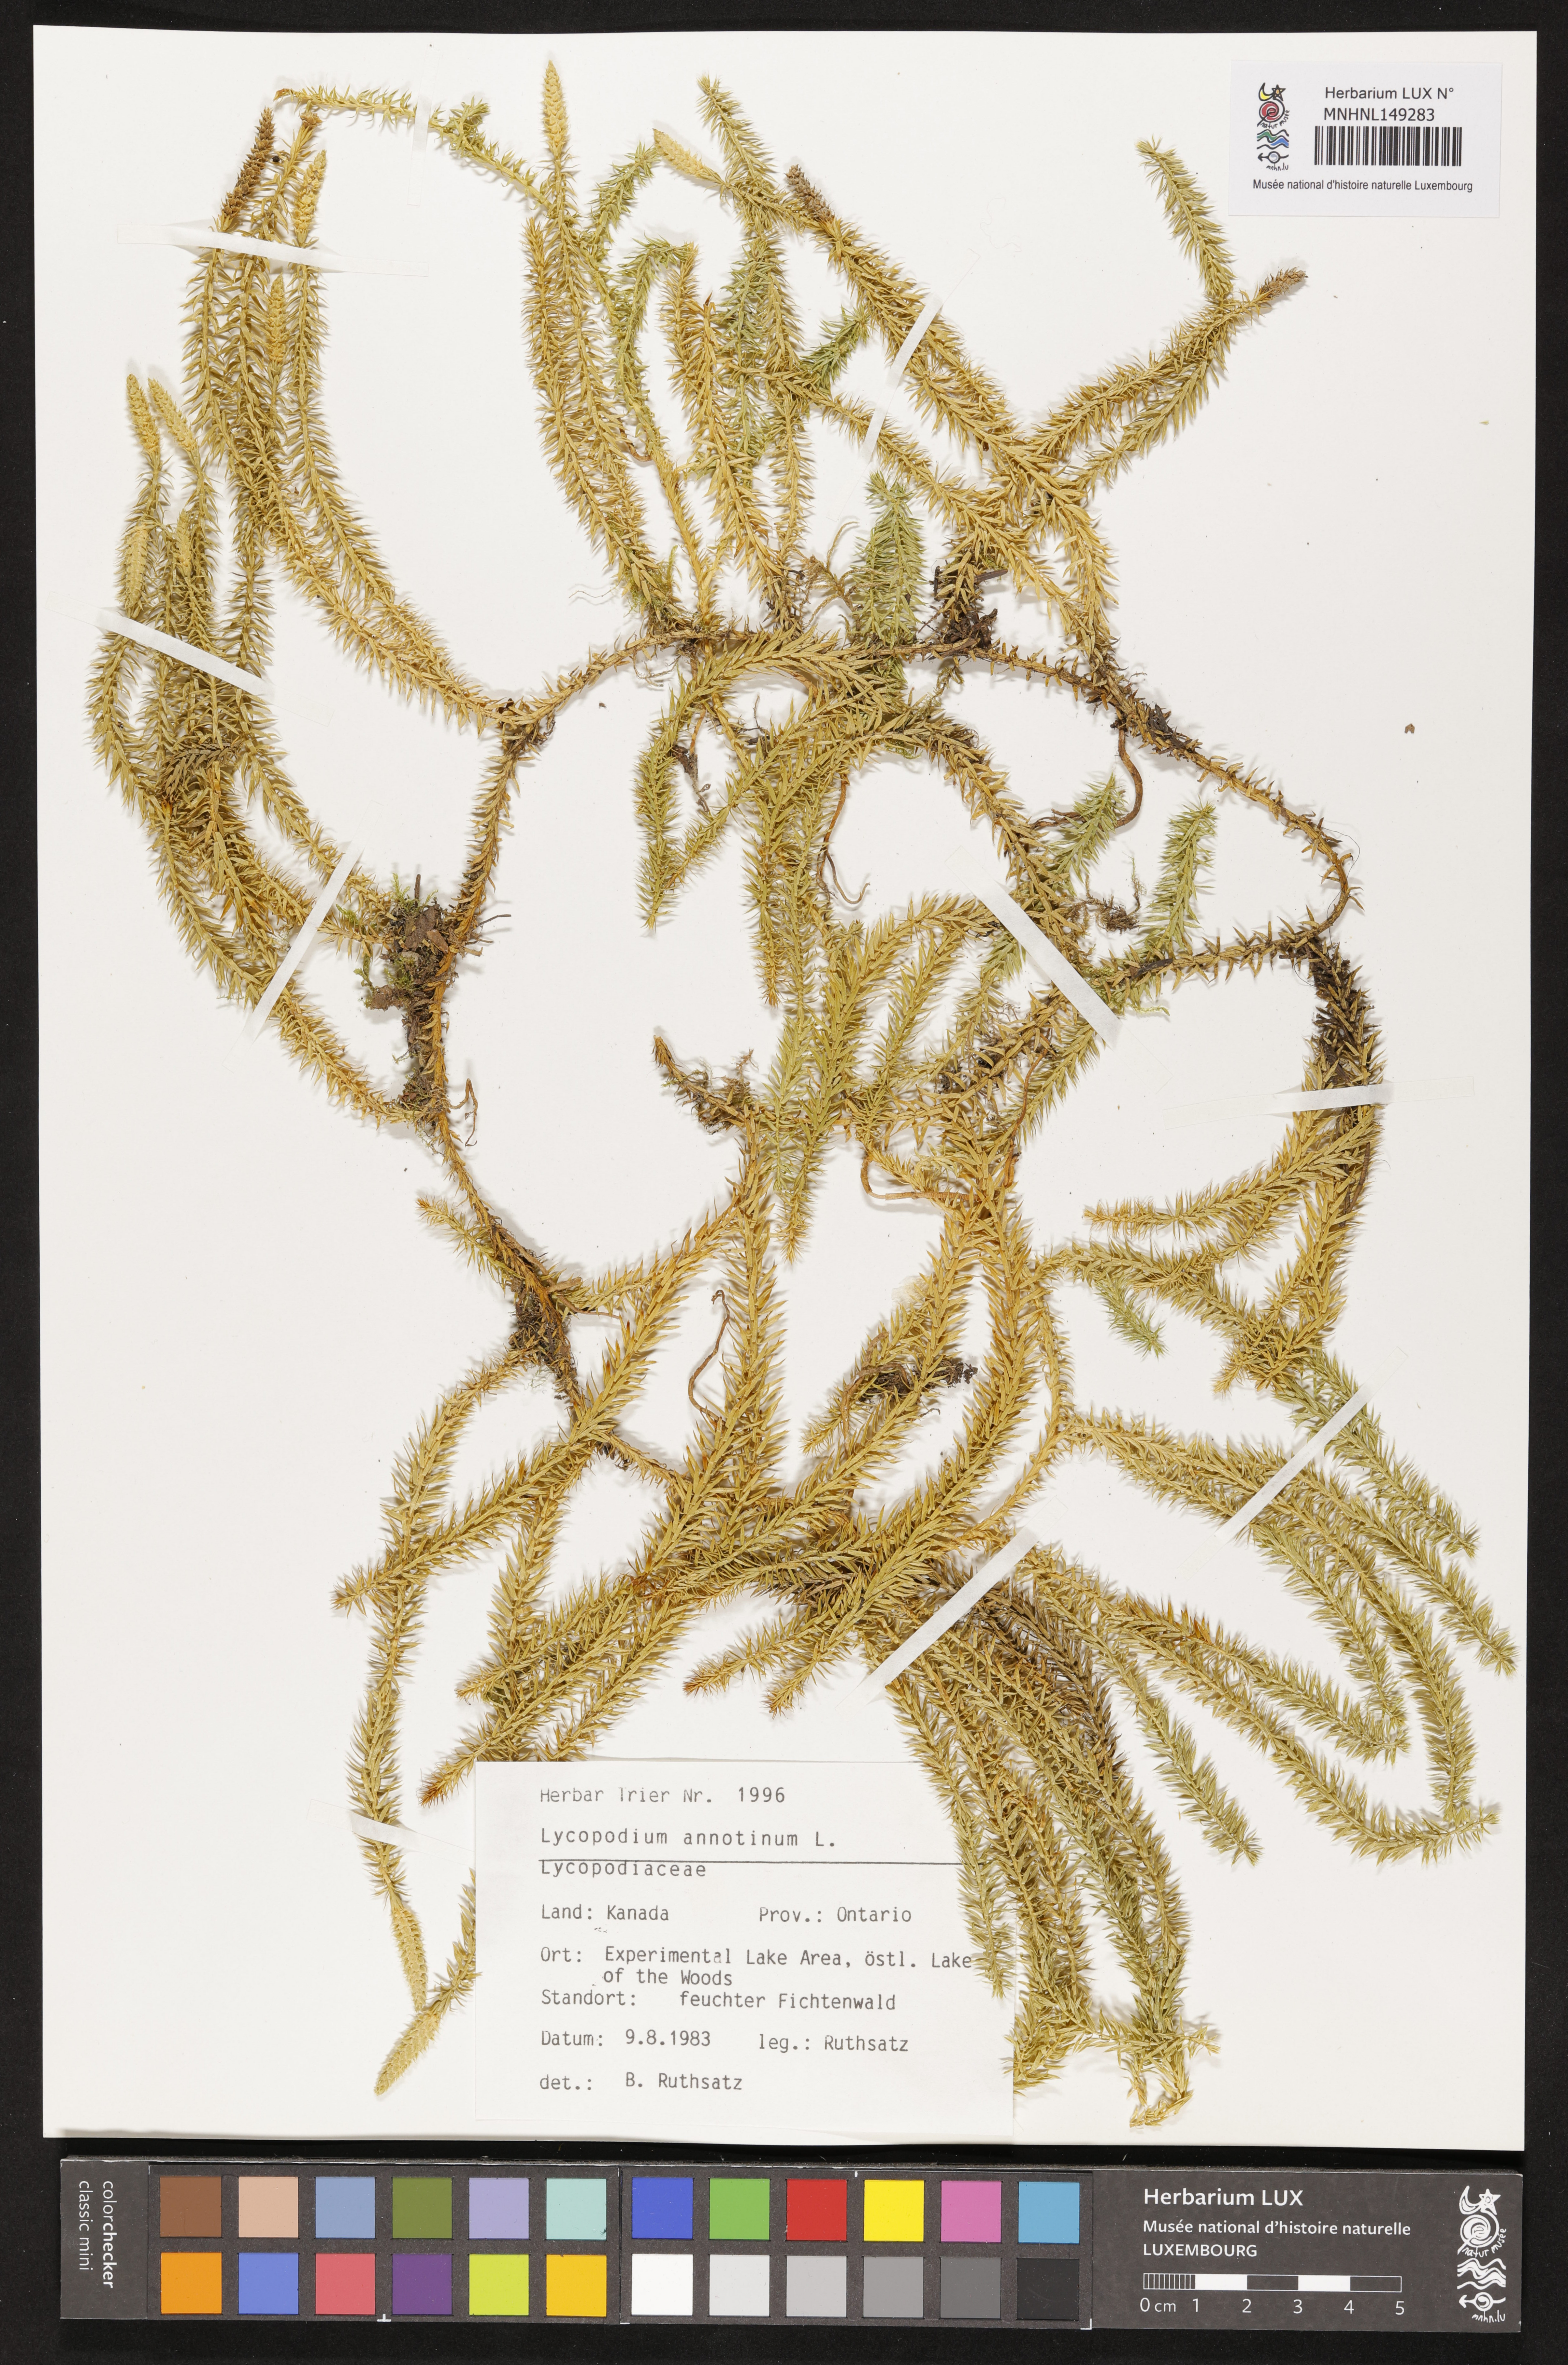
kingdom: Plantae
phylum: Tracheophyta
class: Lycopodiopsida
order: Lycopodiales
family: Lycopodiaceae
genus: Spinulum
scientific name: Spinulum annotinum
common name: Interrupted club-moss
